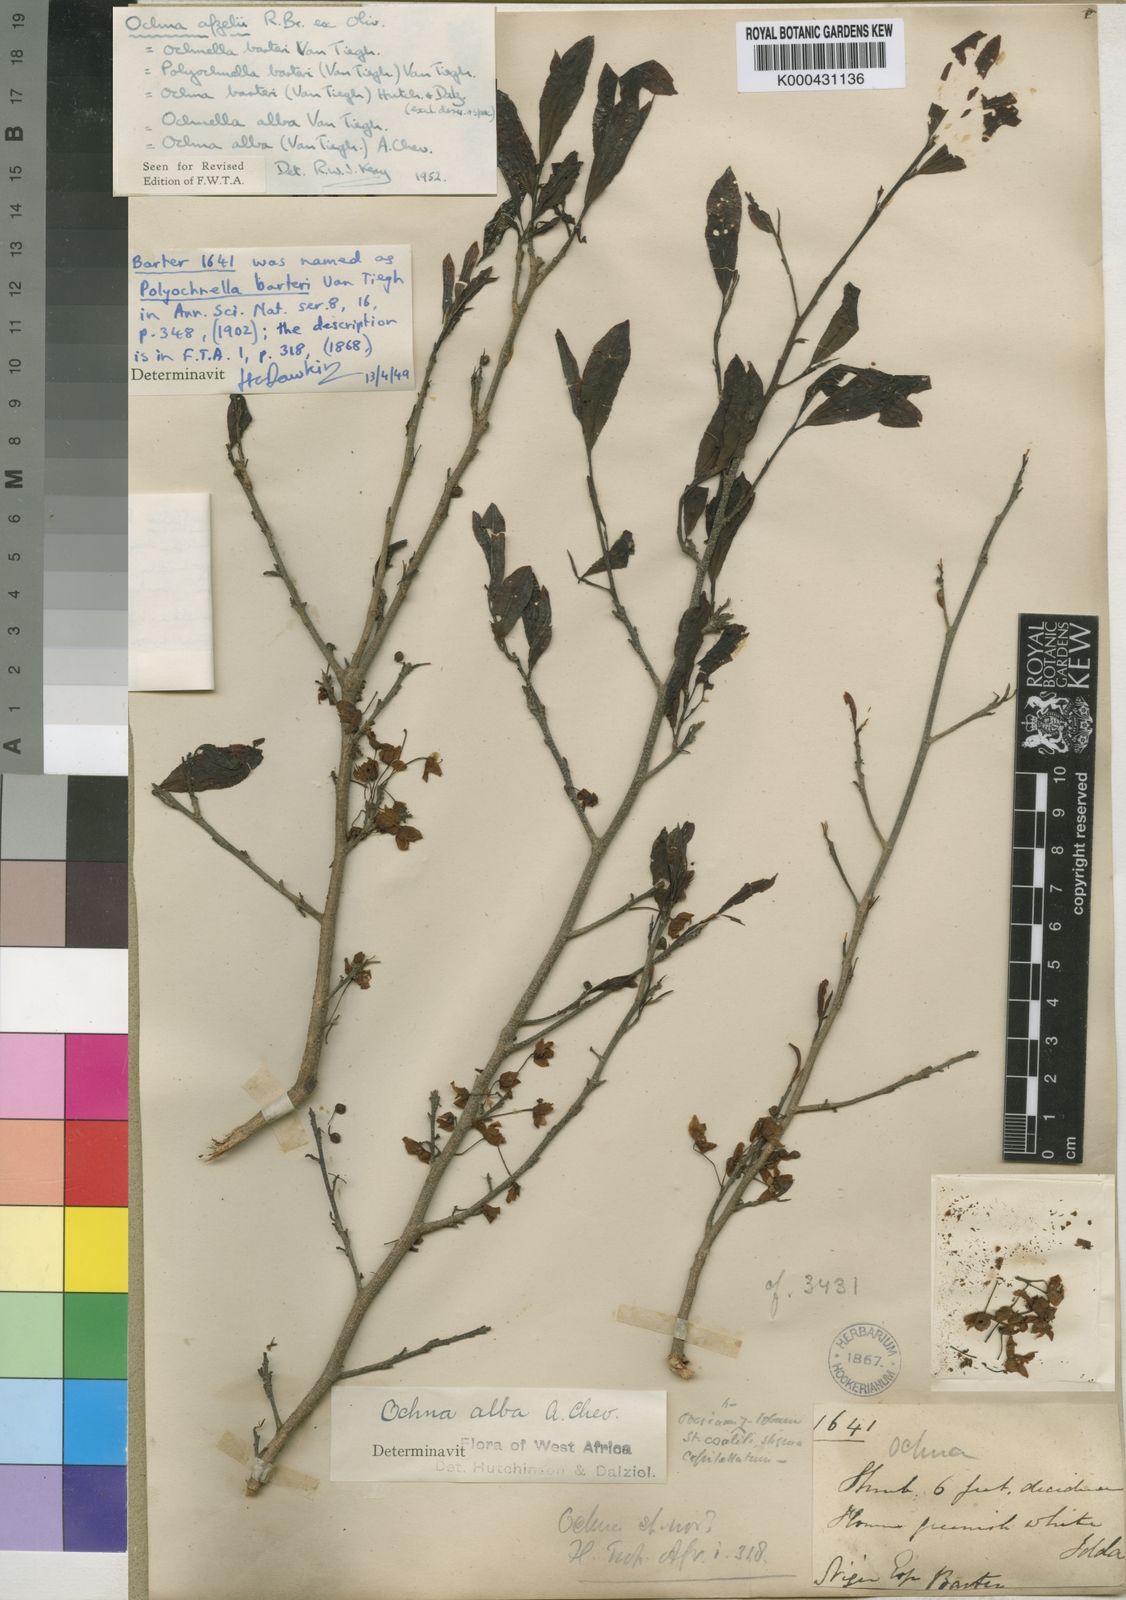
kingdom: Plantae
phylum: Tracheophyta
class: Magnoliopsida
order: Malpighiales
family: Ochnaceae
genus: Ochna
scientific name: Ochna afzelii
